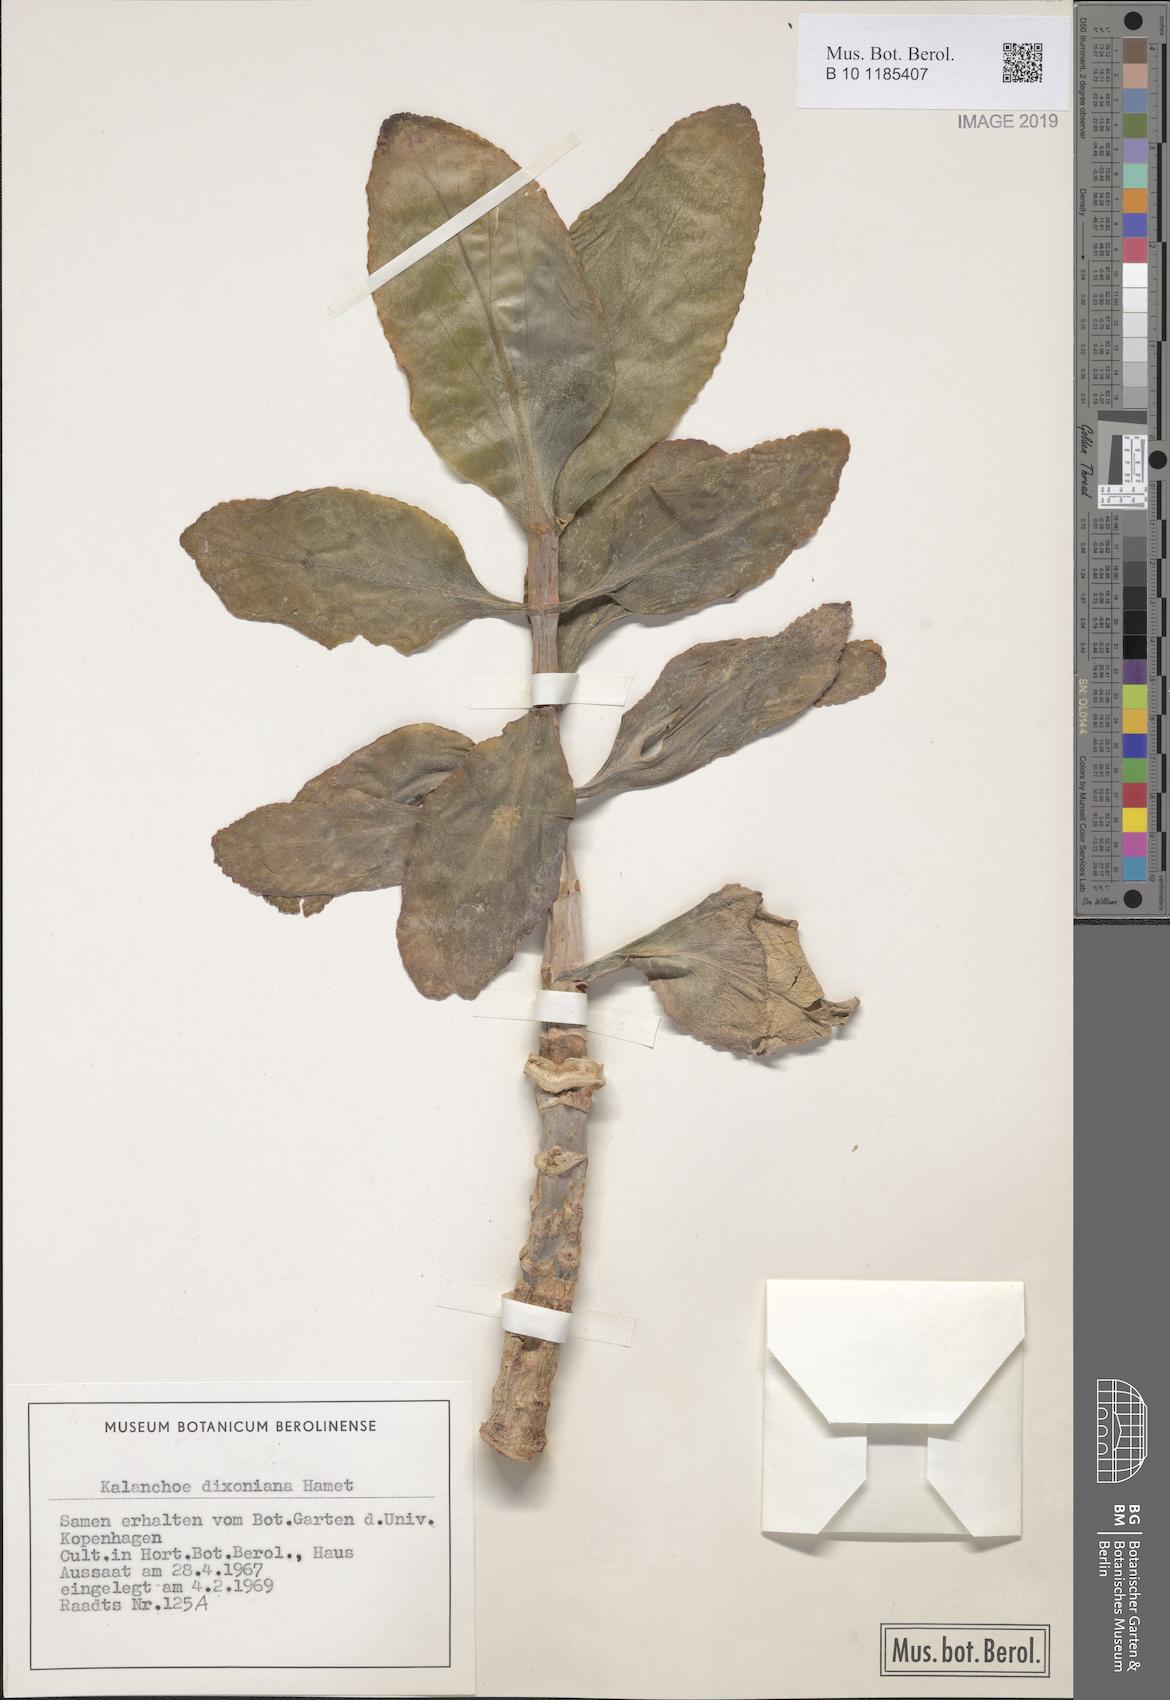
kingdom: Plantae
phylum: Tracheophyta
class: Magnoliopsida
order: Saxifragales
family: Crassulaceae
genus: Kalanchoe
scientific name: Kalanchoe integra
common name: Neverdie
